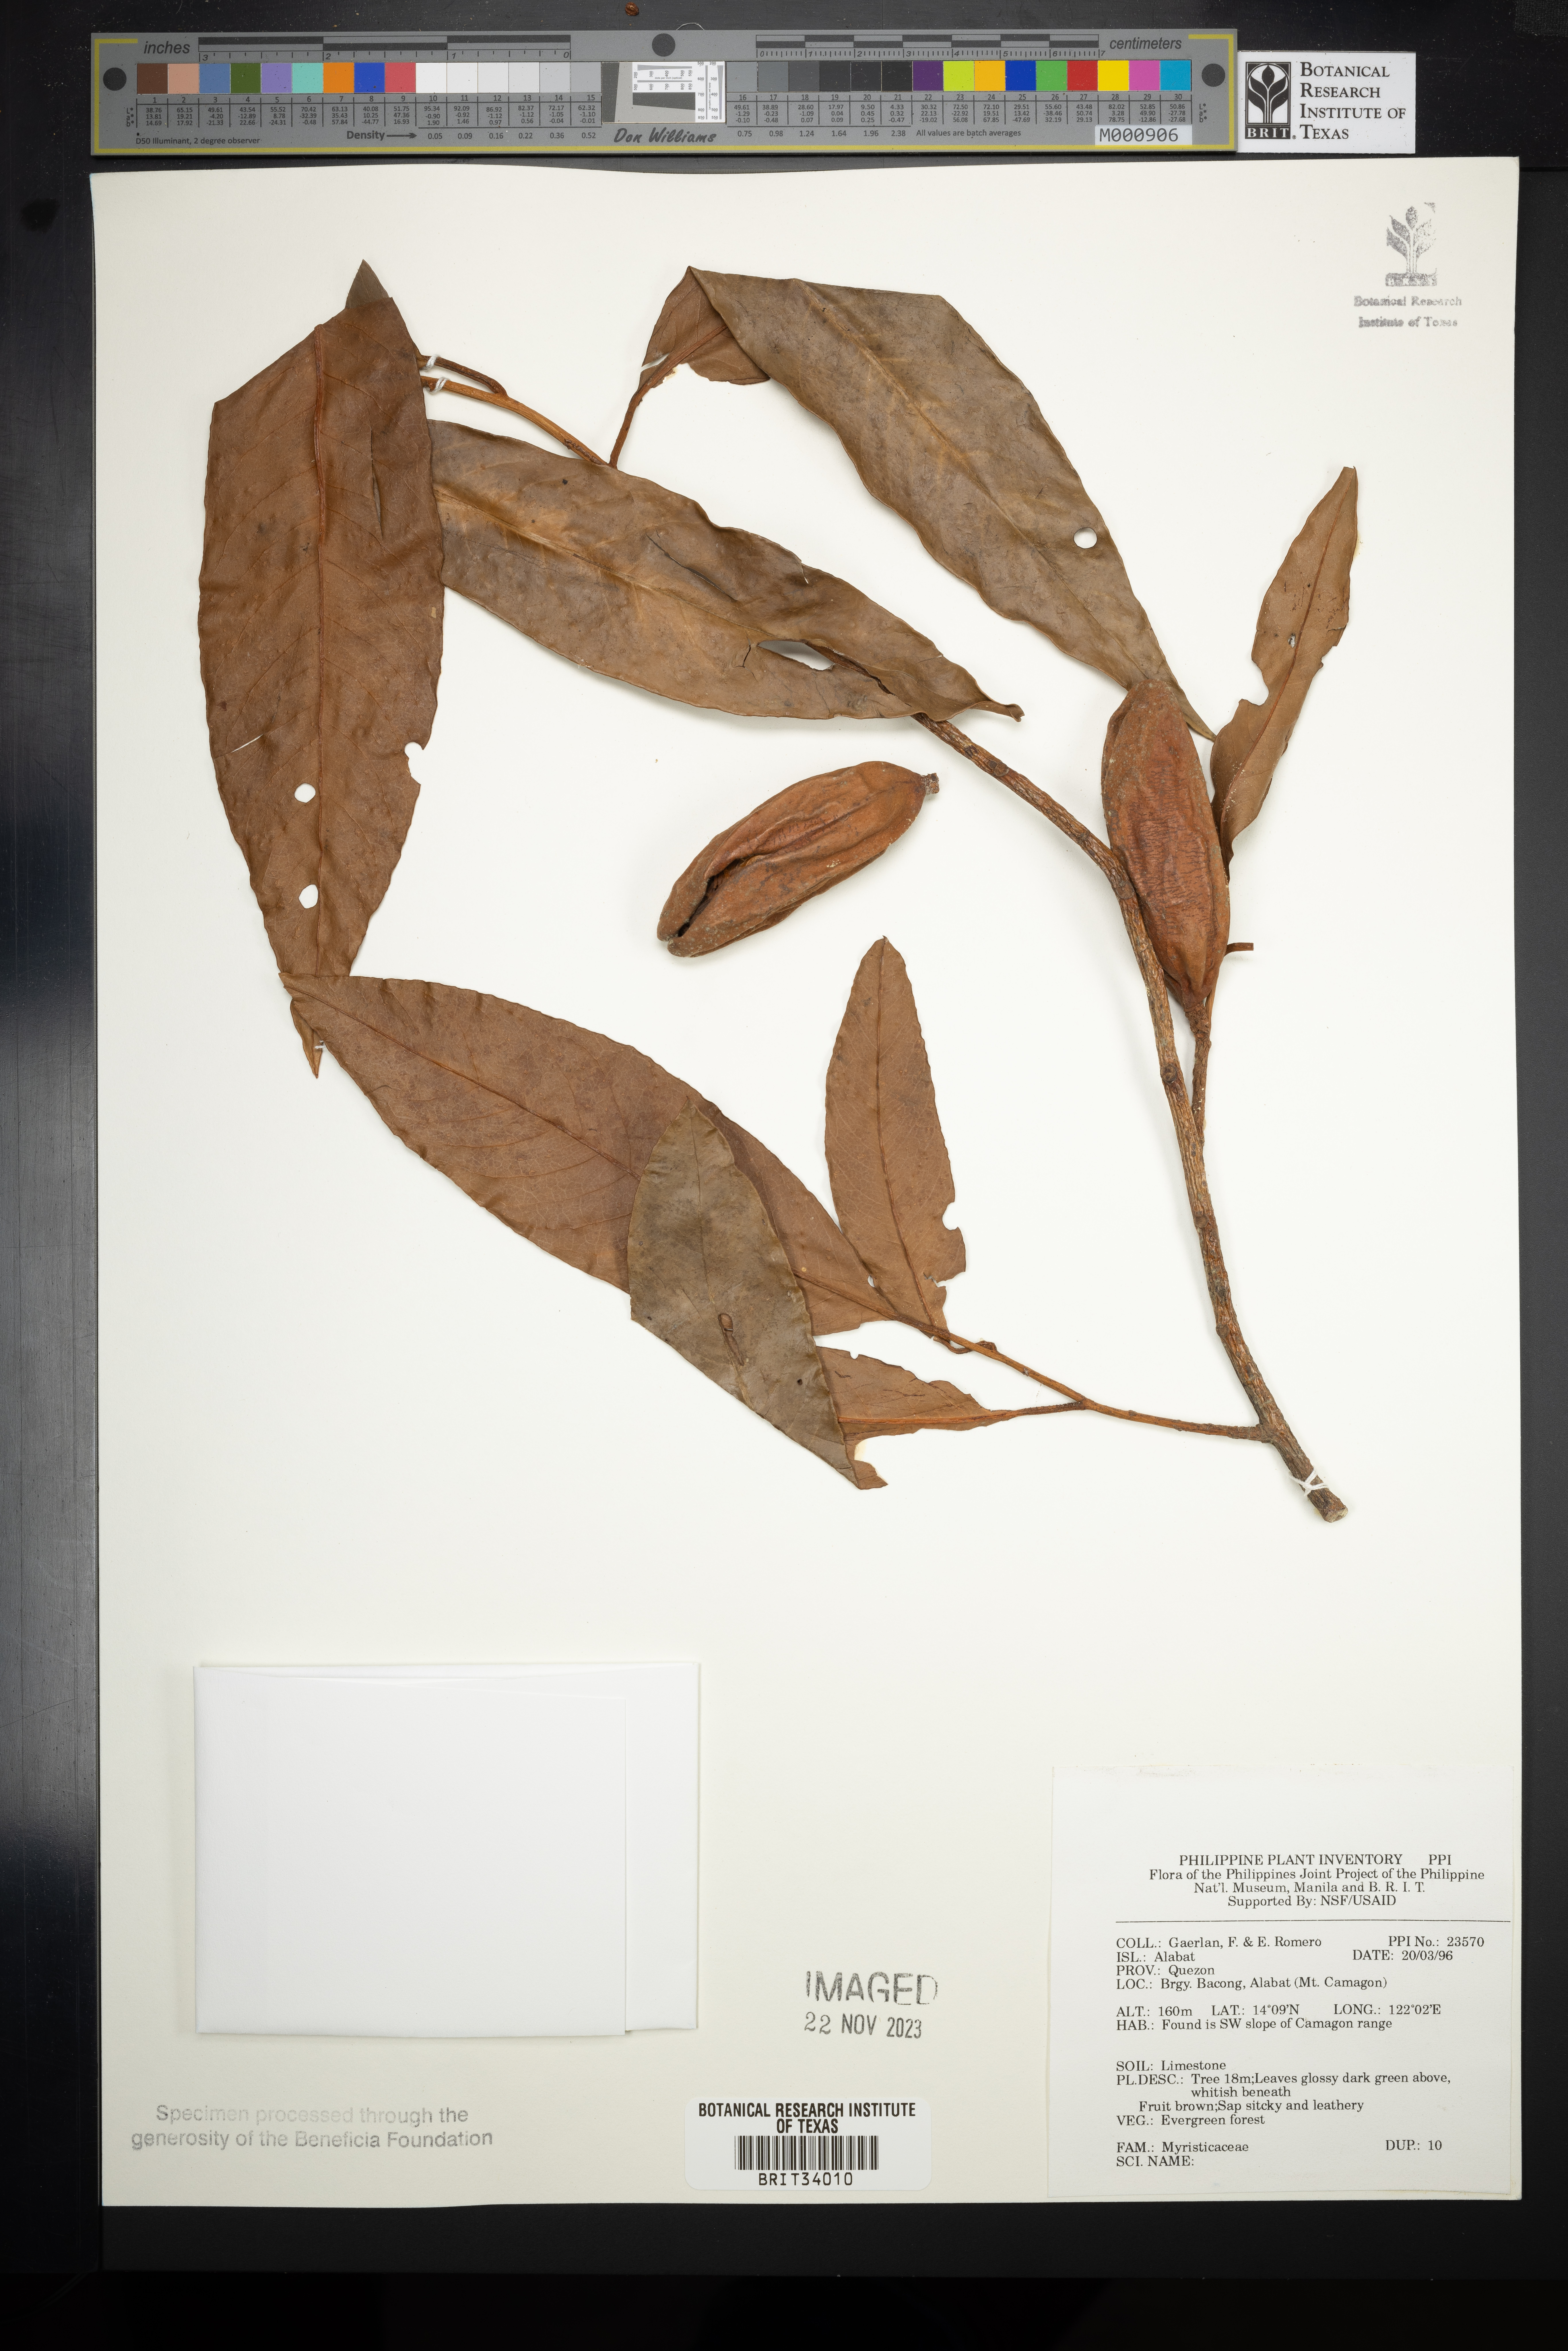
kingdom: Plantae
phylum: Tracheophyta
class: Magnoliopsida
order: Magnoliales
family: Myristicaceae
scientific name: Myristicaceae
